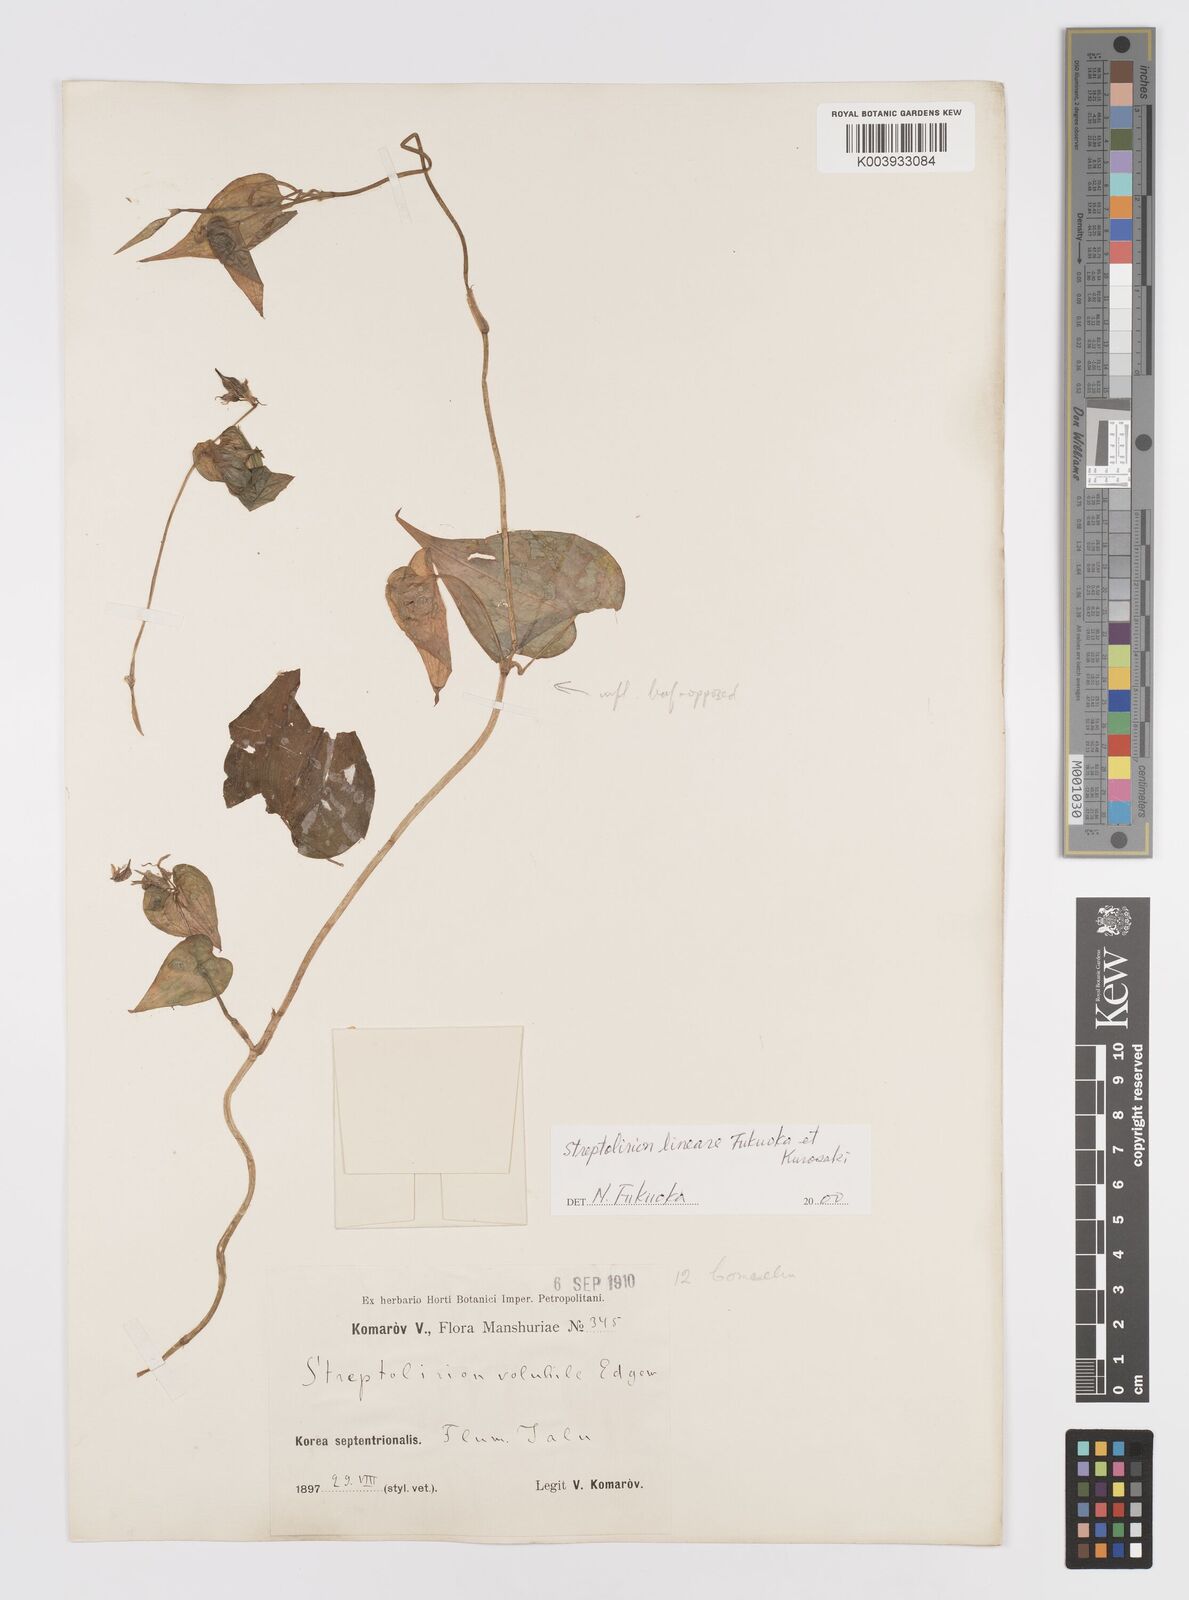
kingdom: Plantae
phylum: Tracheophyta
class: Liliopsida
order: Commelinales
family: Commelinaceae
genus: Streptolirion
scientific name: Streptolirion lineare
